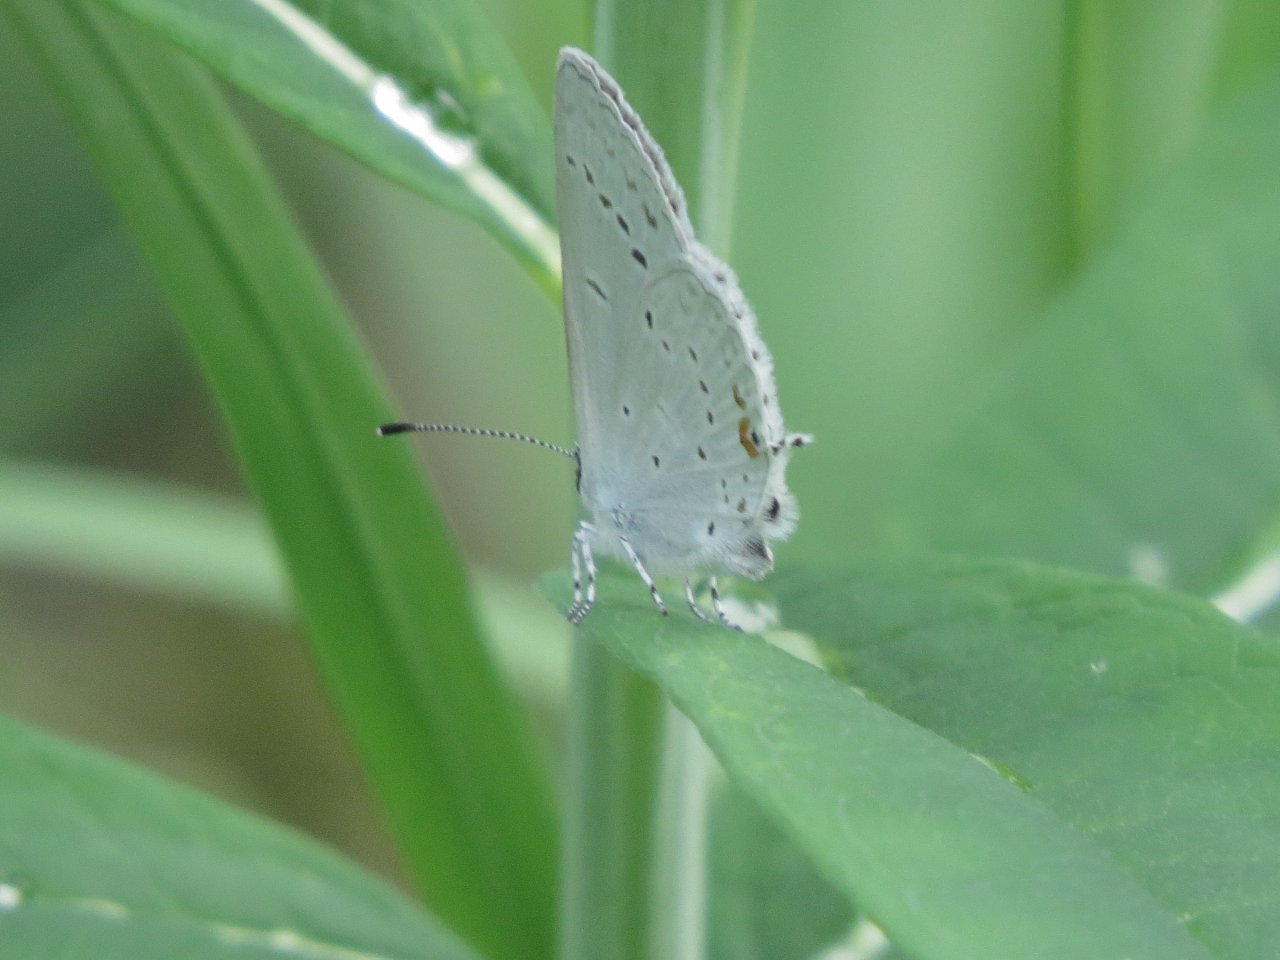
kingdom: Animalia
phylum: Arthropoda
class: Insecta
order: Lepidoptera
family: Lycaenidae
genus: Elkalyce
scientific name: Elkalyce amyntula
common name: Western Tailed-Blue
